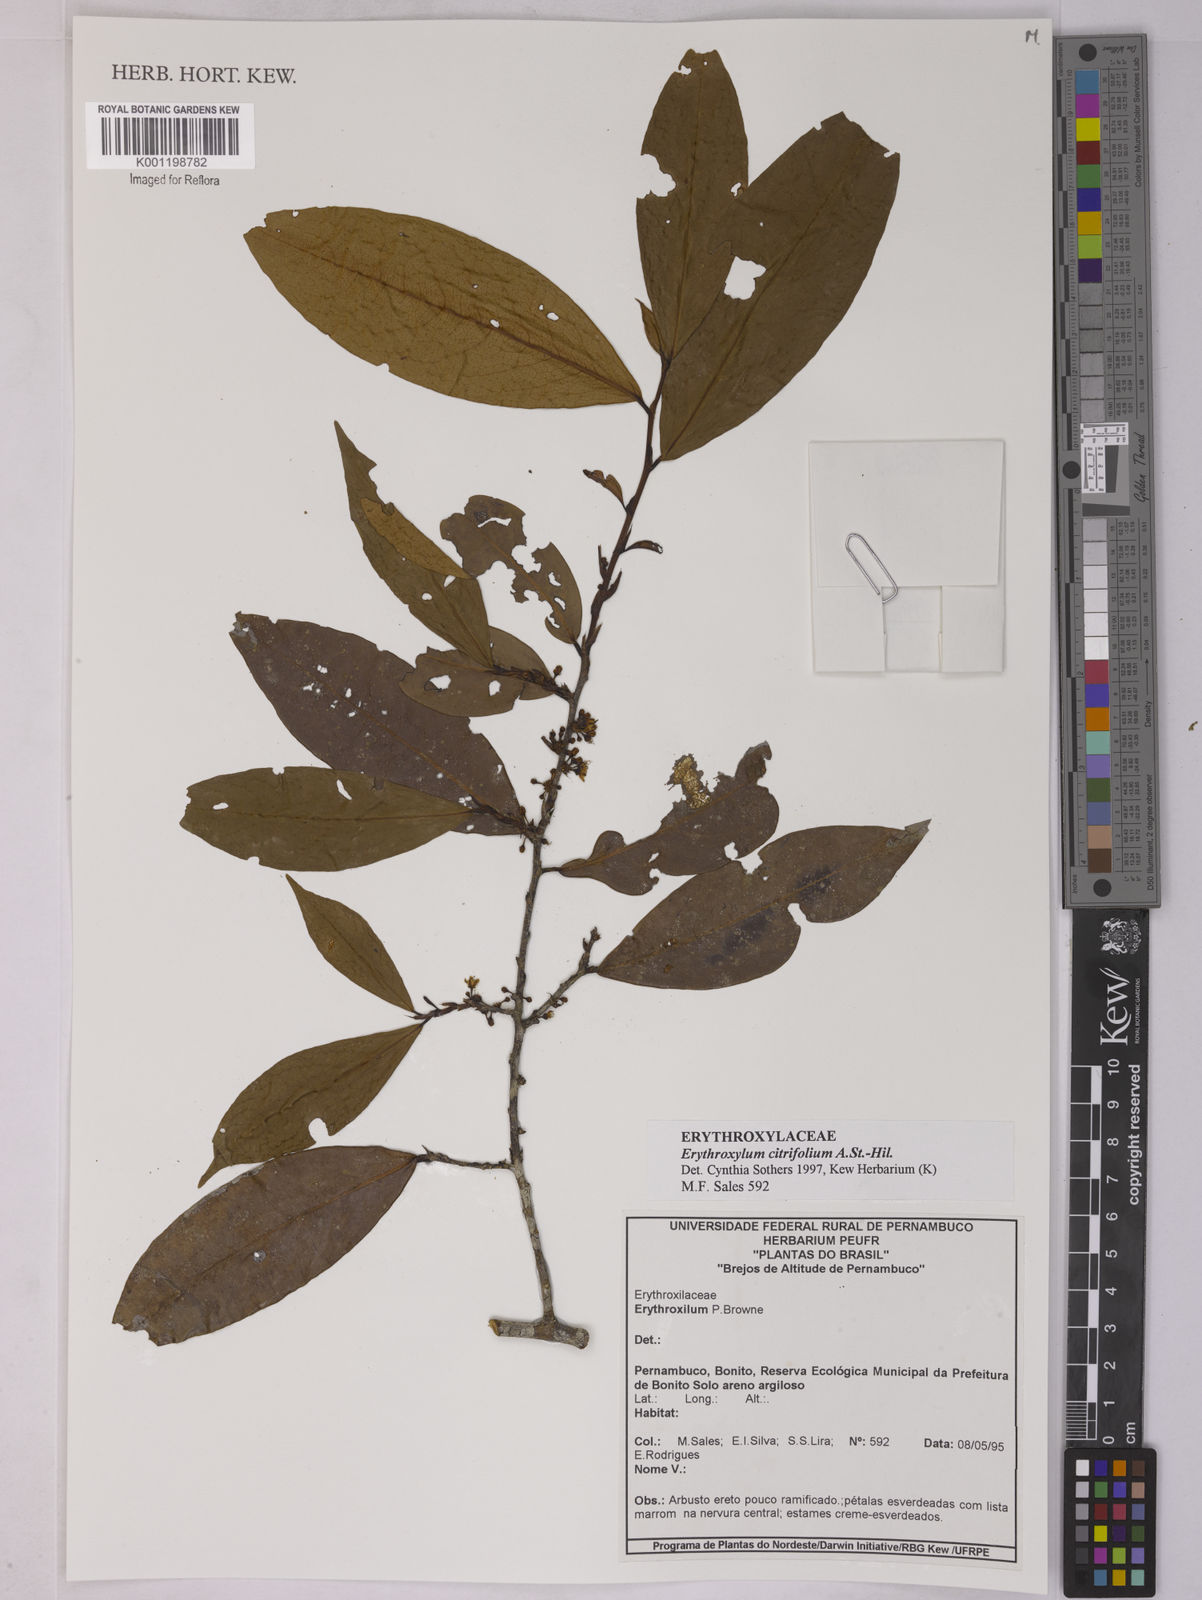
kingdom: Plantae
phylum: Tracheophyta
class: Magnoliopsida
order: Malpighiales
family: Erythroxylaceae
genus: Erythroxylum
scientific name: Erythroxylum citrifolium
